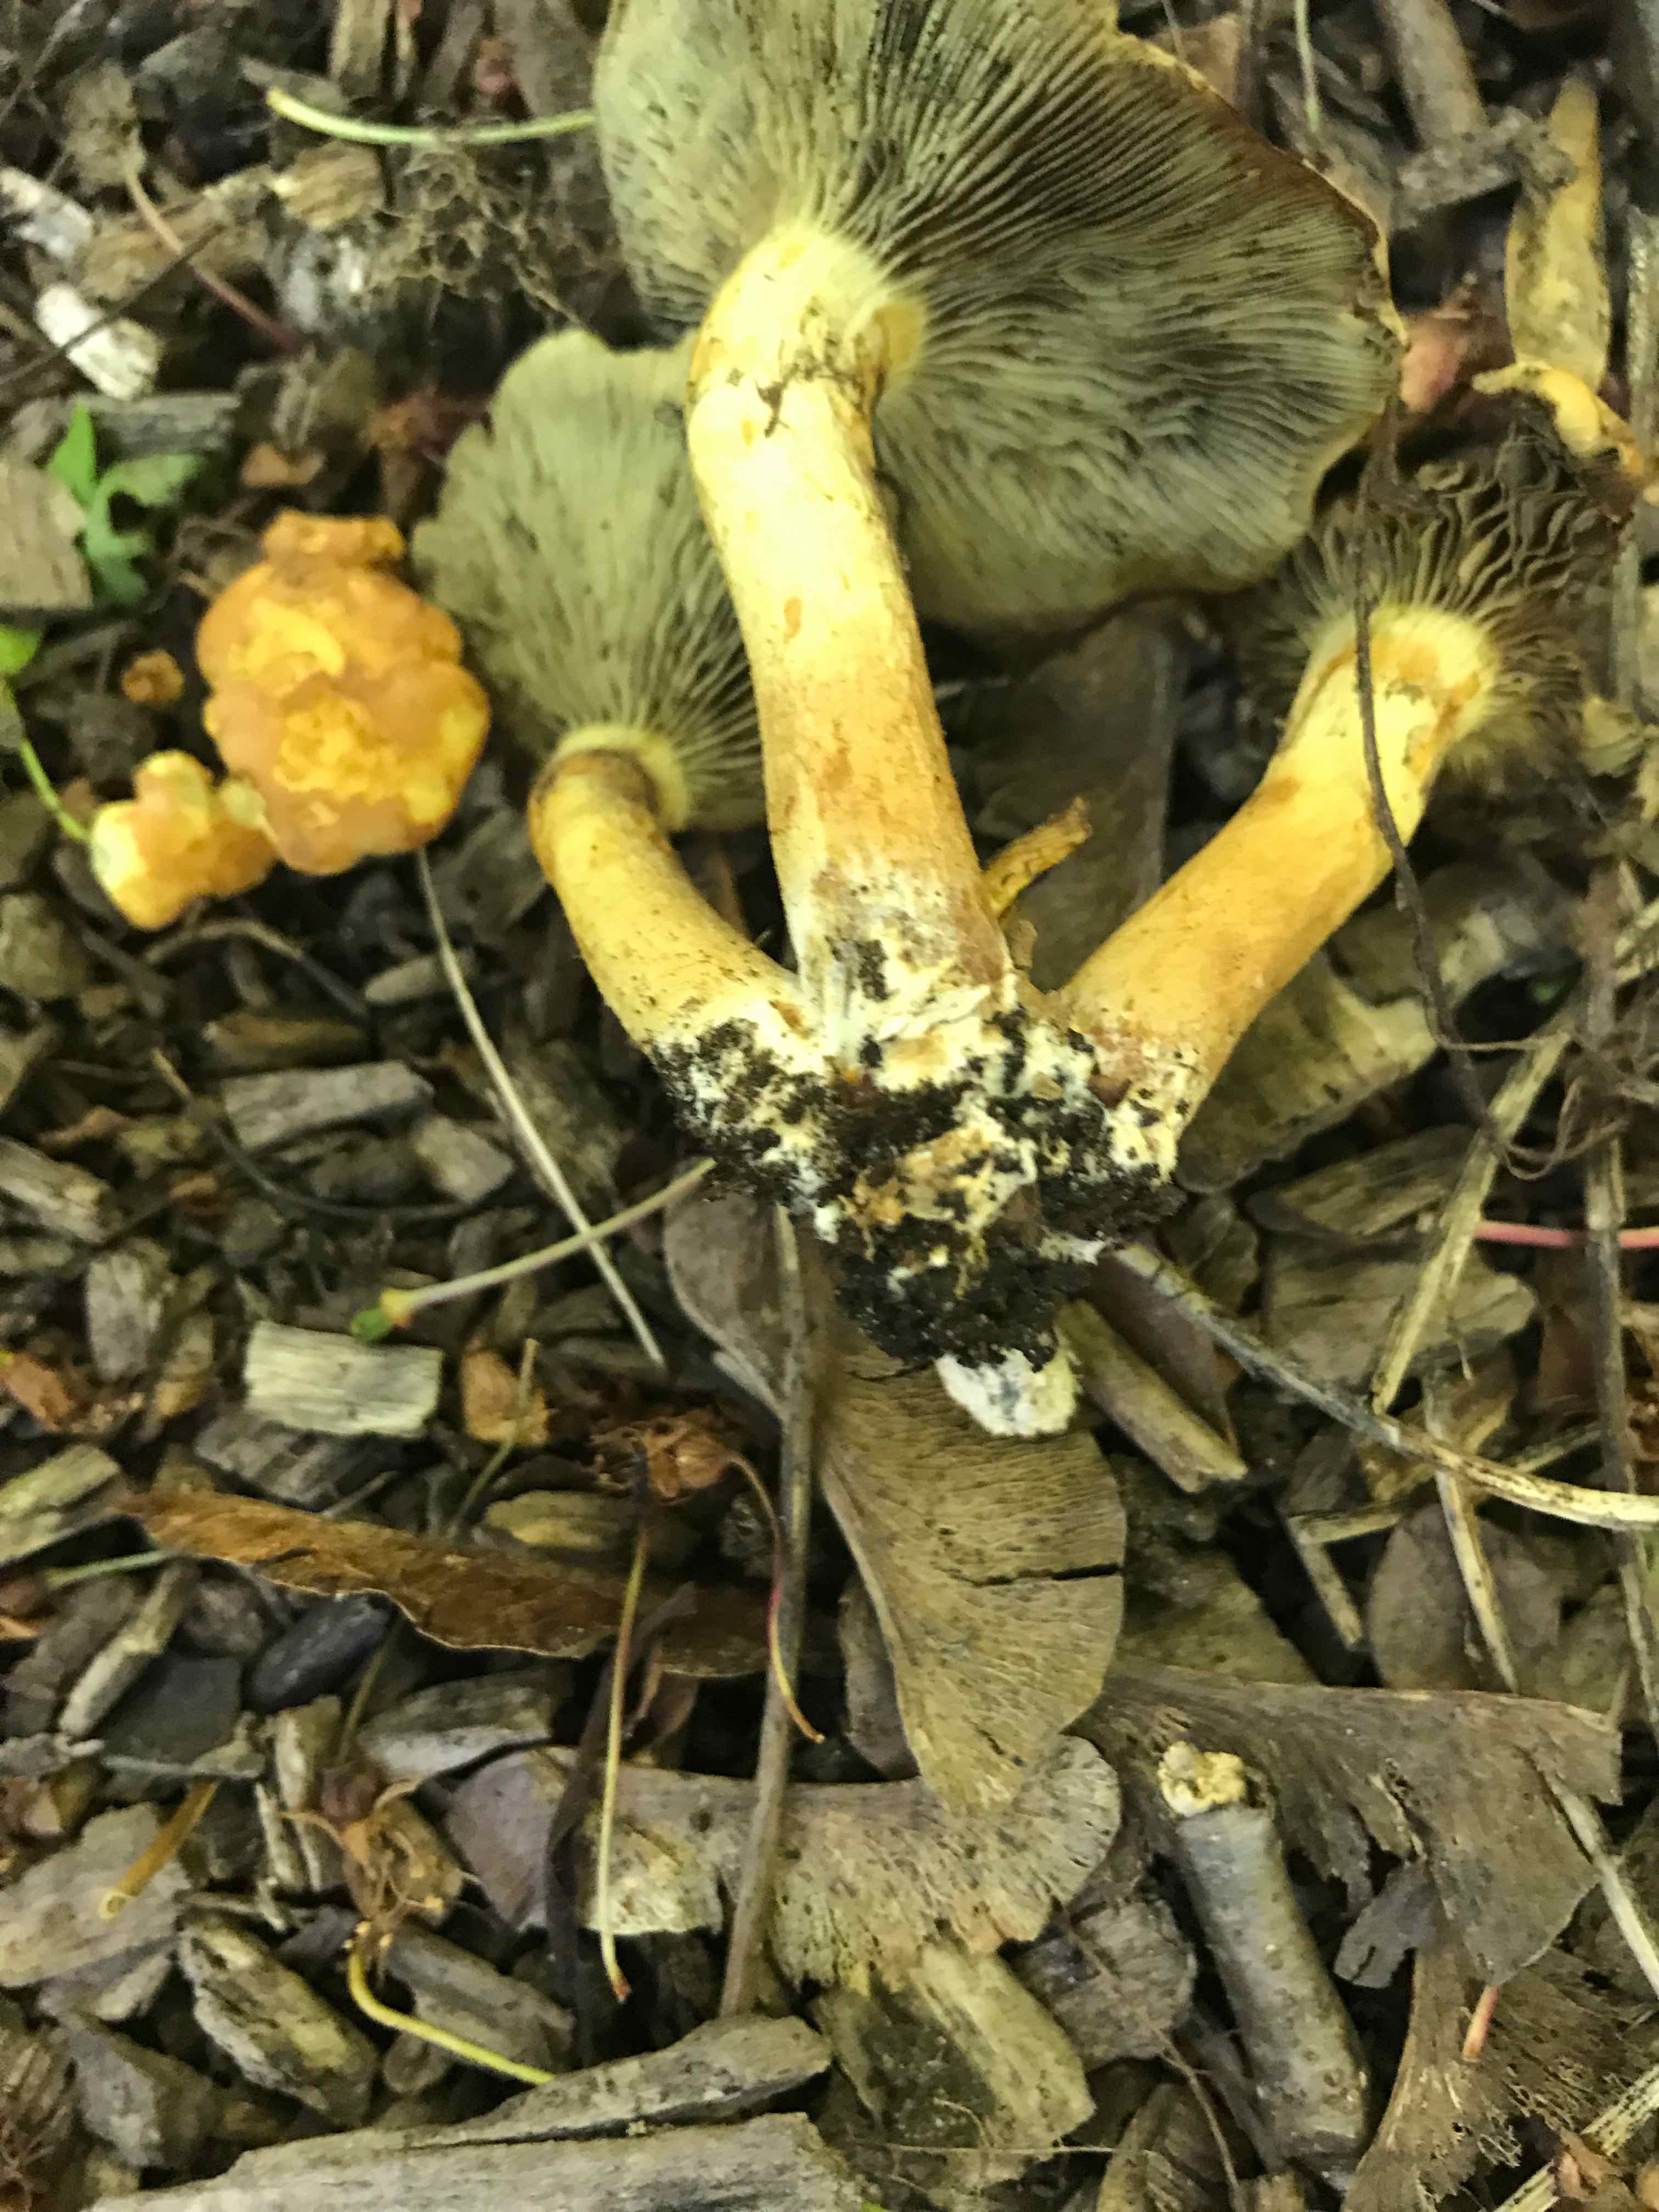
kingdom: Fungi
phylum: Basidiomycota
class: Agaricomycetes
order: Agaricales
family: Strophariaceae
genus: Hypholoma
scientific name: Hypholoma fasciculare
